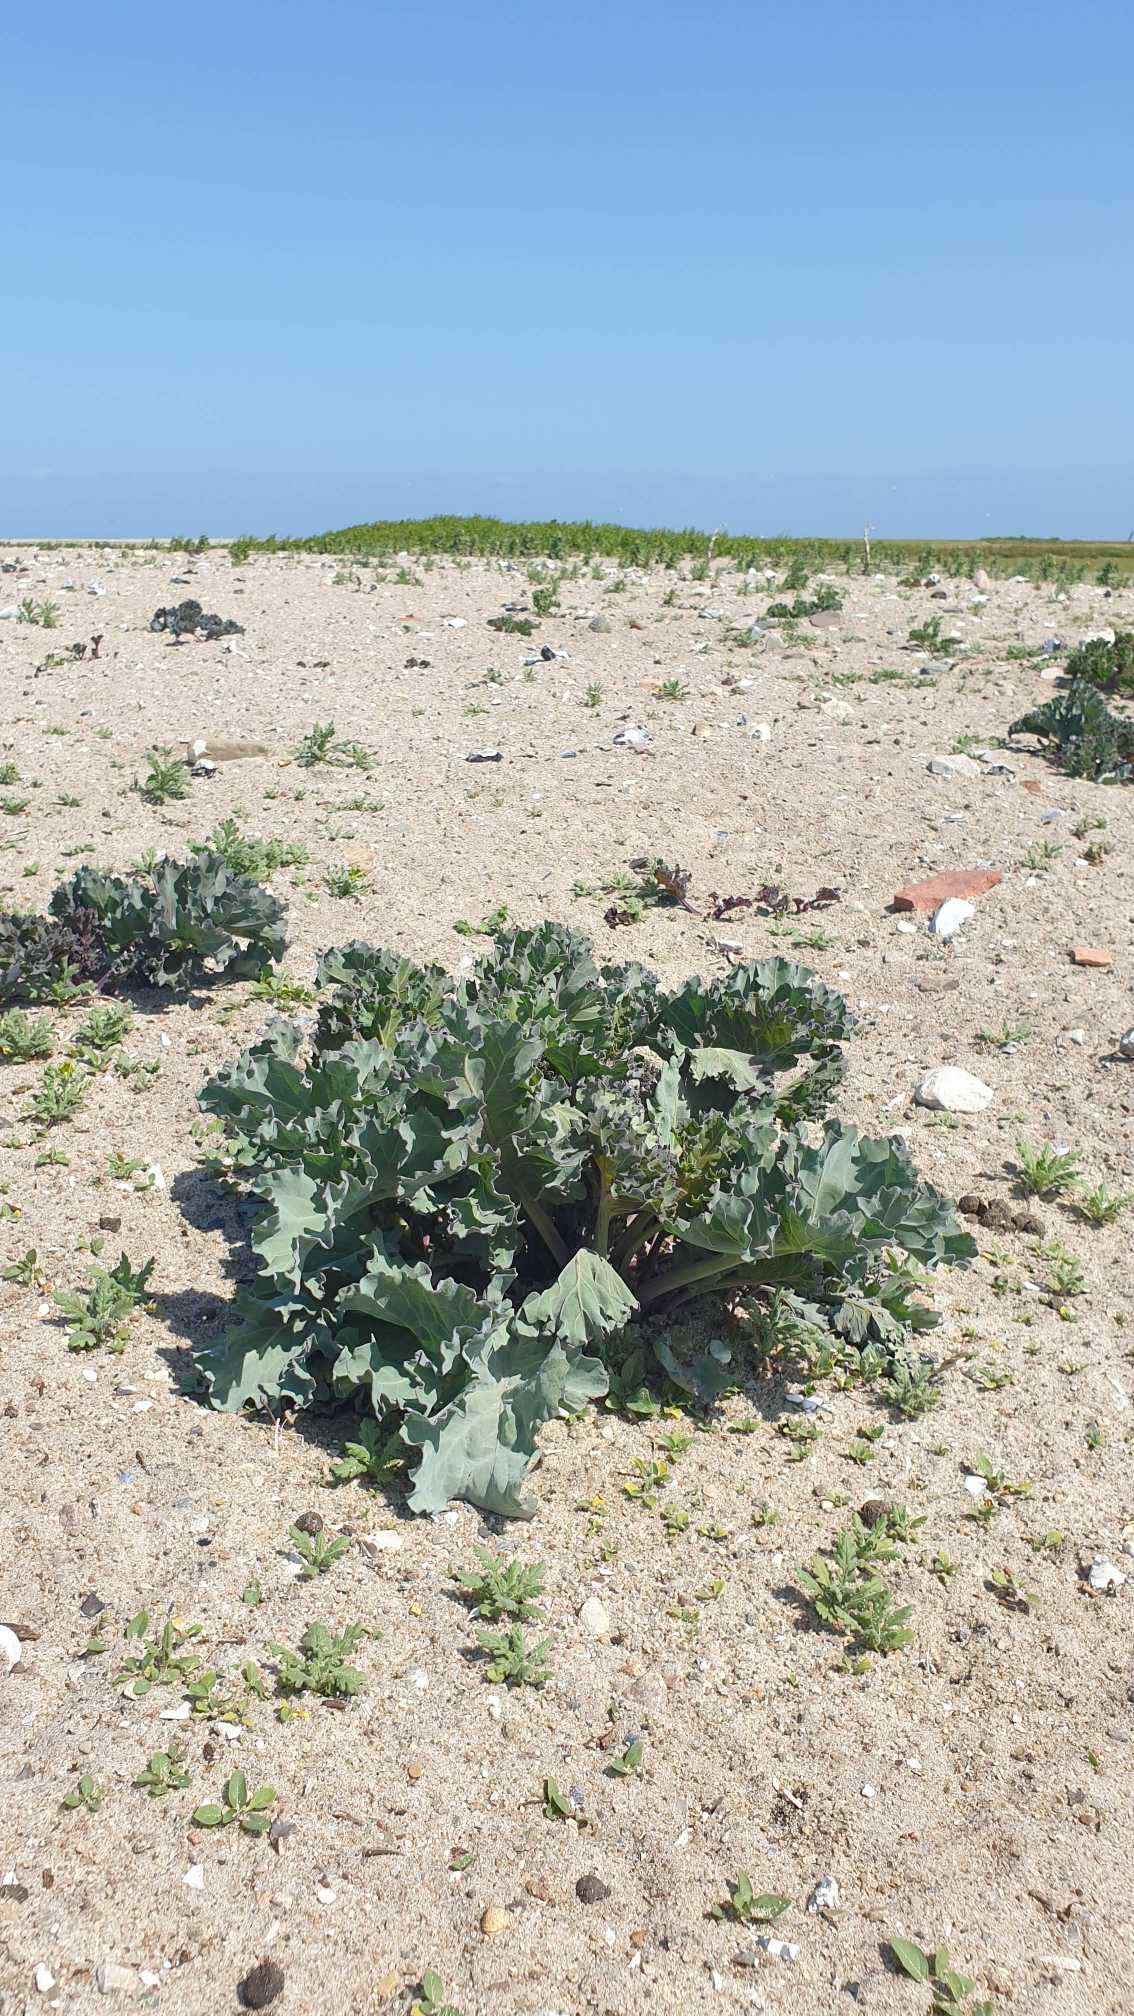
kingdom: Plantae
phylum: Tracheophyta
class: Magnoliopsida
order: Brassicales
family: Brassicaceae
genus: Crambe
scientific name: Crambe maritima
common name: Strandkål
